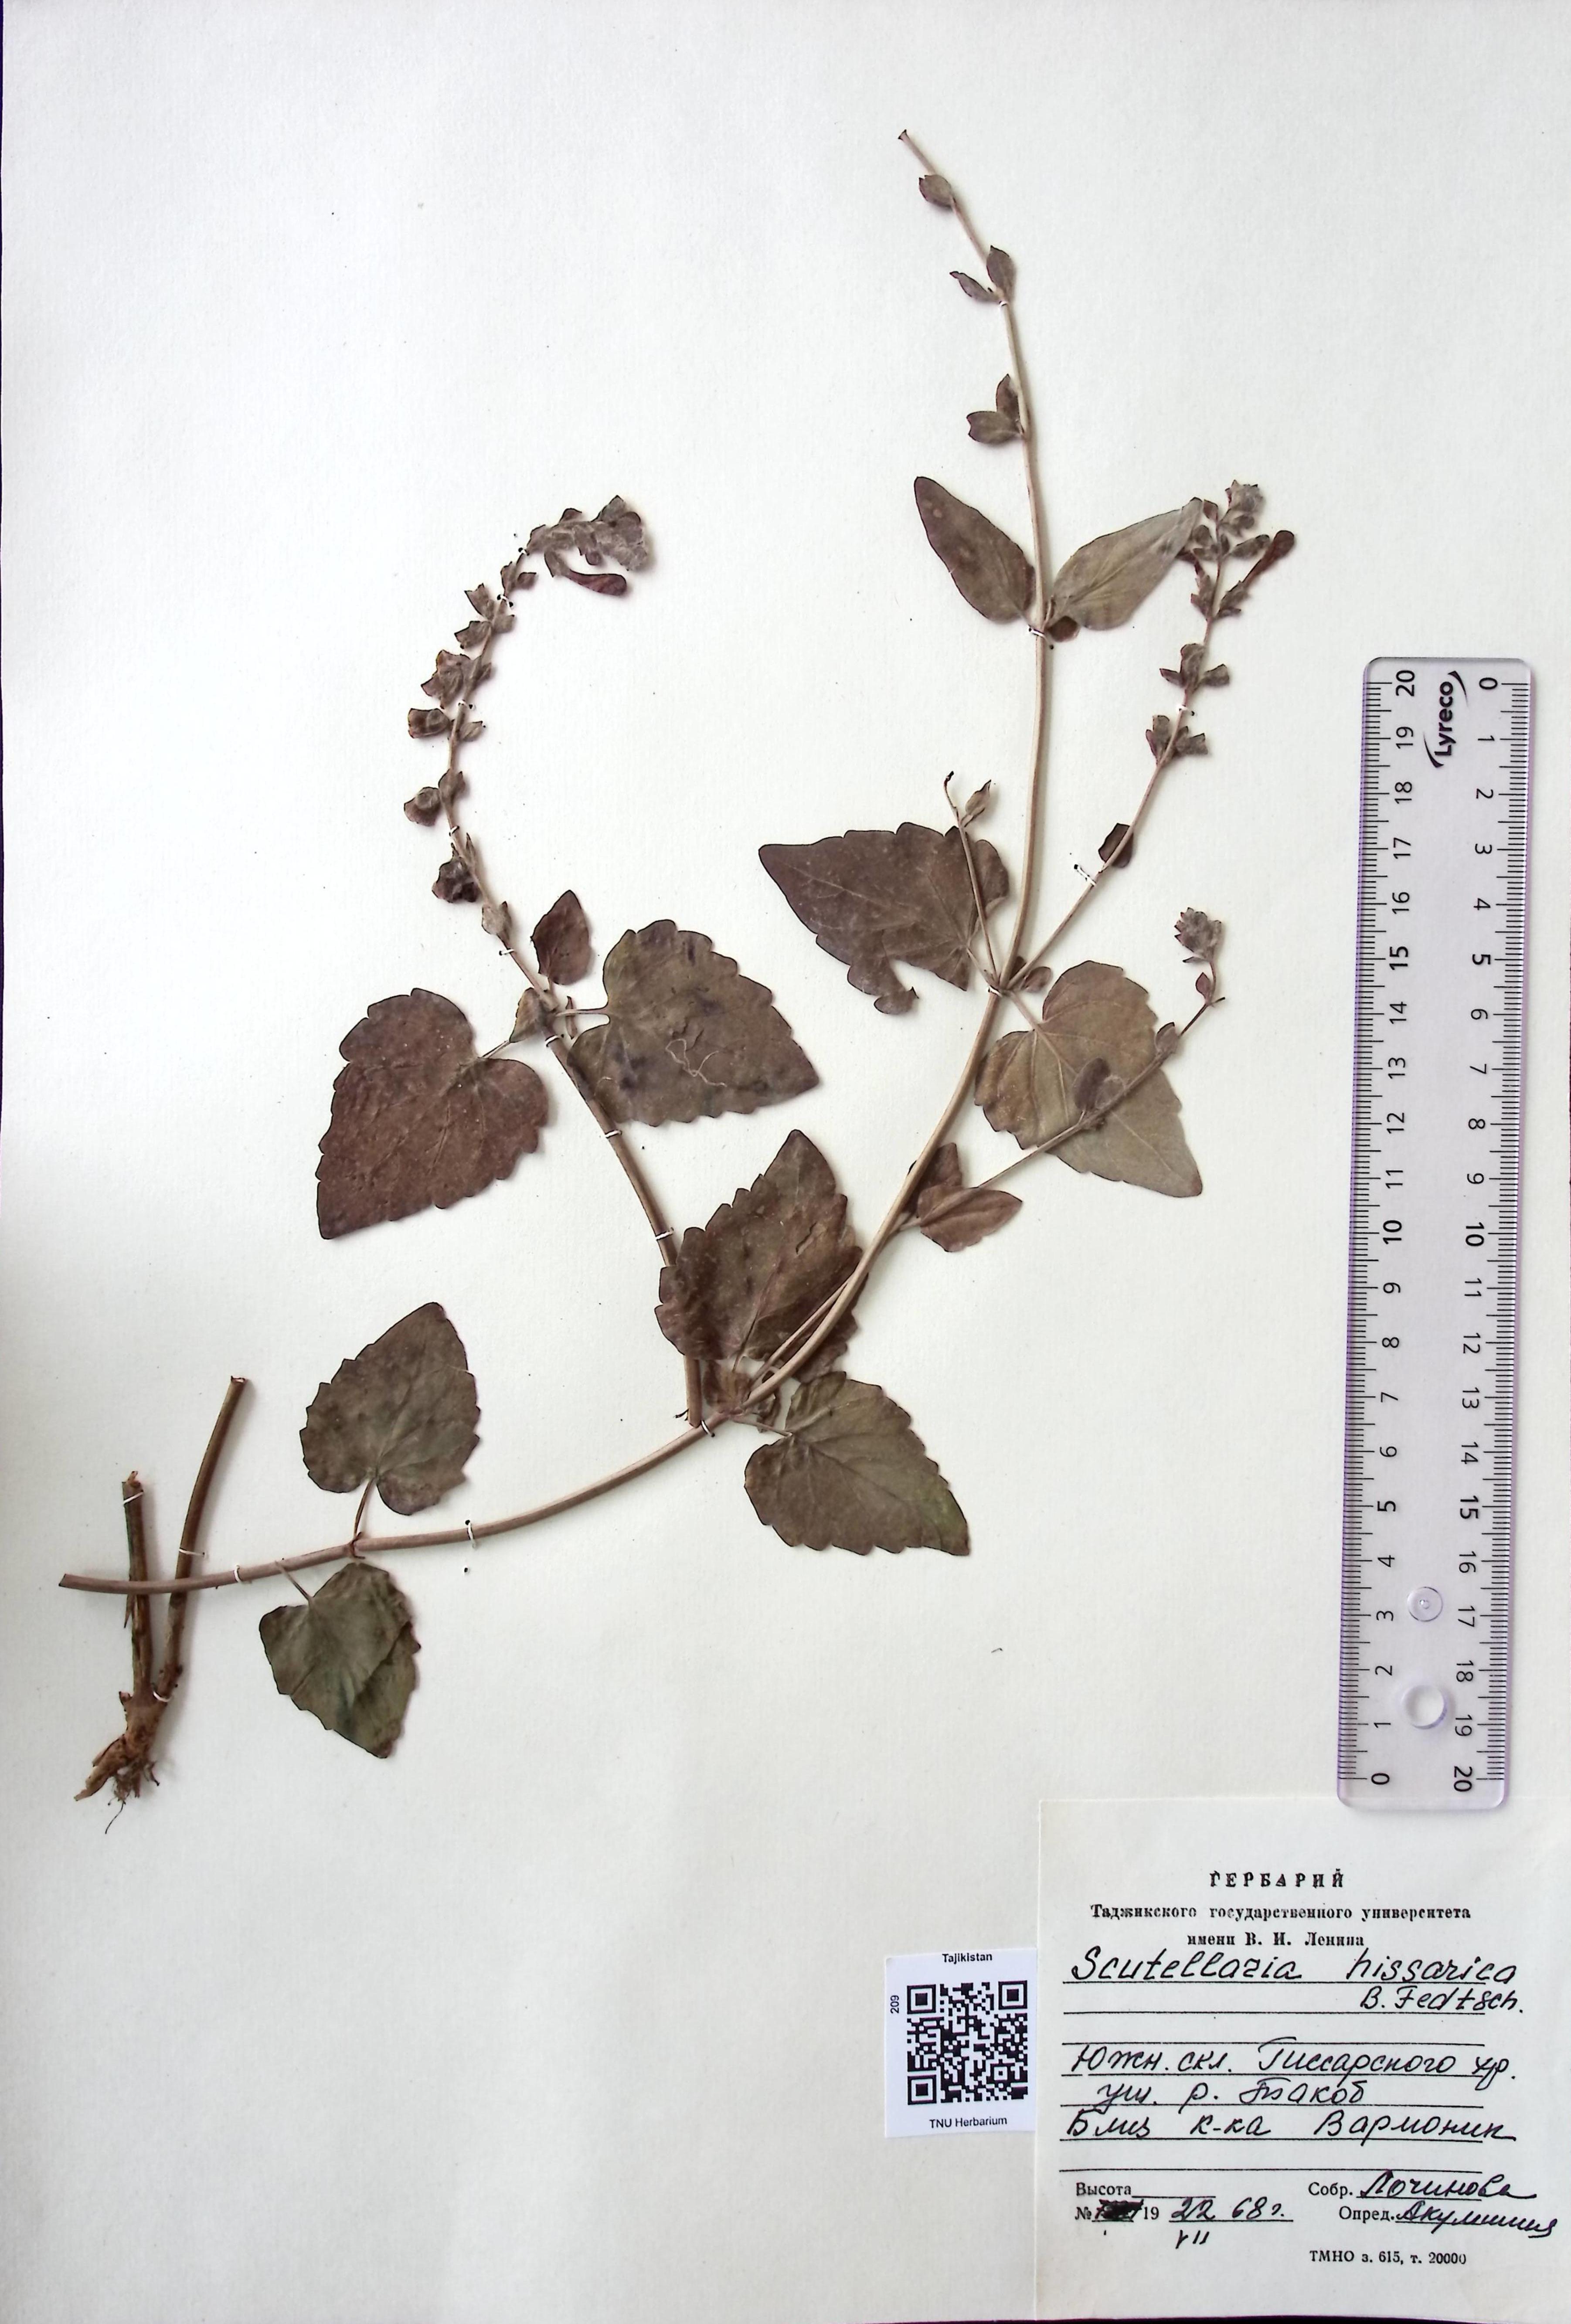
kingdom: Plantae
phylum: Tracheophyta
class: Magnoliopsida
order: Lamiales
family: Lamiaceae
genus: Scutellaria
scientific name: Scutellaria hissarica
